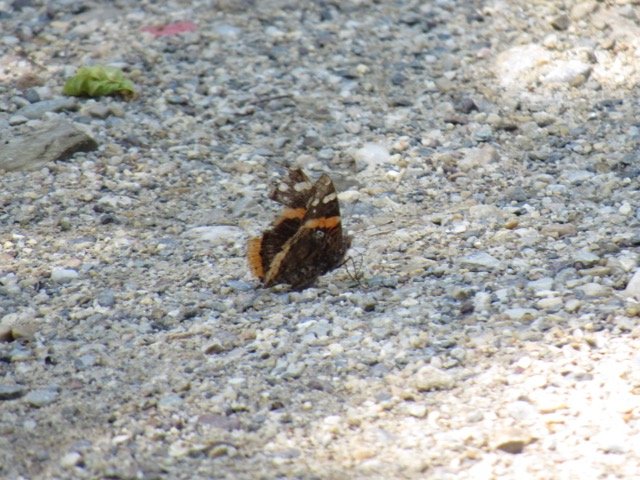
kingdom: Animalia
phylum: Arthropoda
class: Insecta
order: Lepidoptera
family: Nymphalidae
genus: Vanessa
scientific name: Vanessa atalanta
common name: Red Admiral
